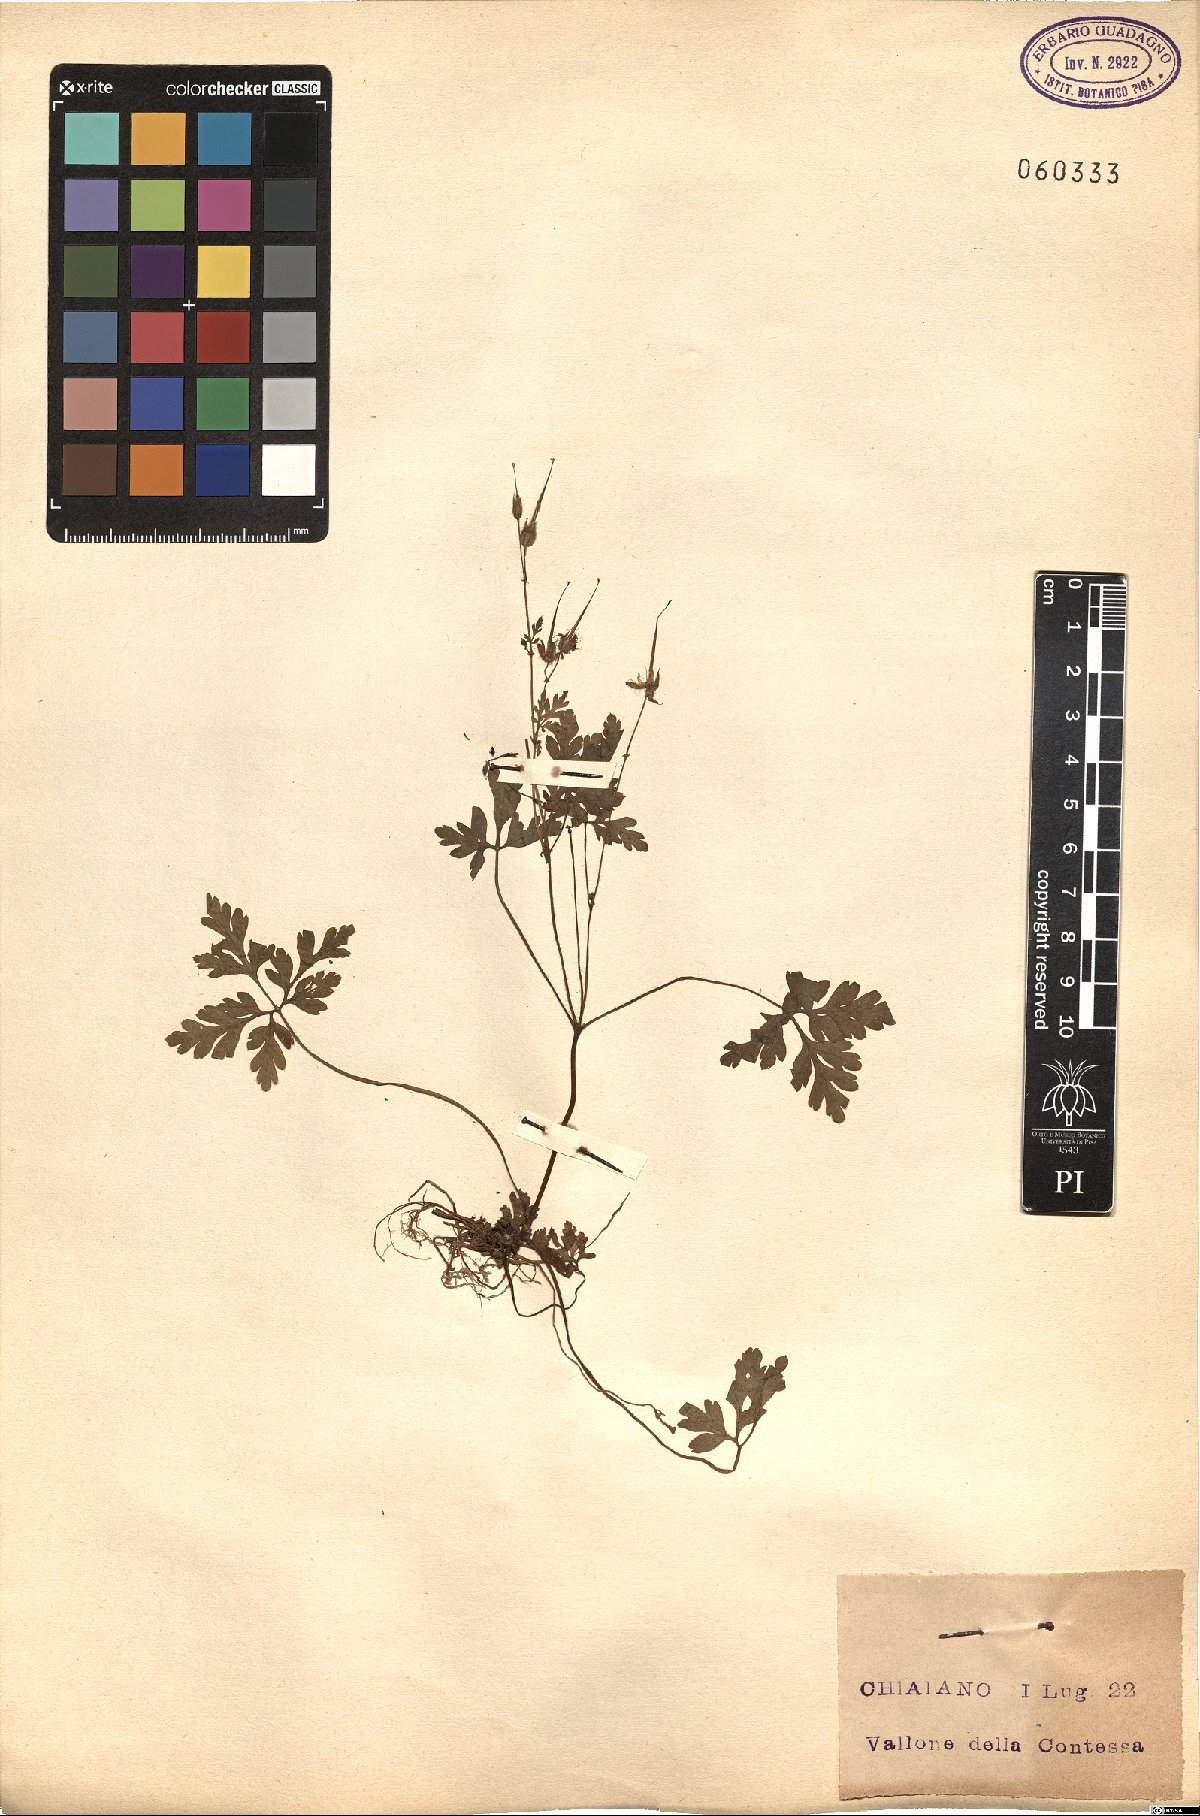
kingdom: Plantae
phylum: Tracheophyta
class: Magnoliopsida
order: Geraniales
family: Geraniaceae
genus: Geranium
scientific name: Geranium robertianum
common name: Herb-robert
